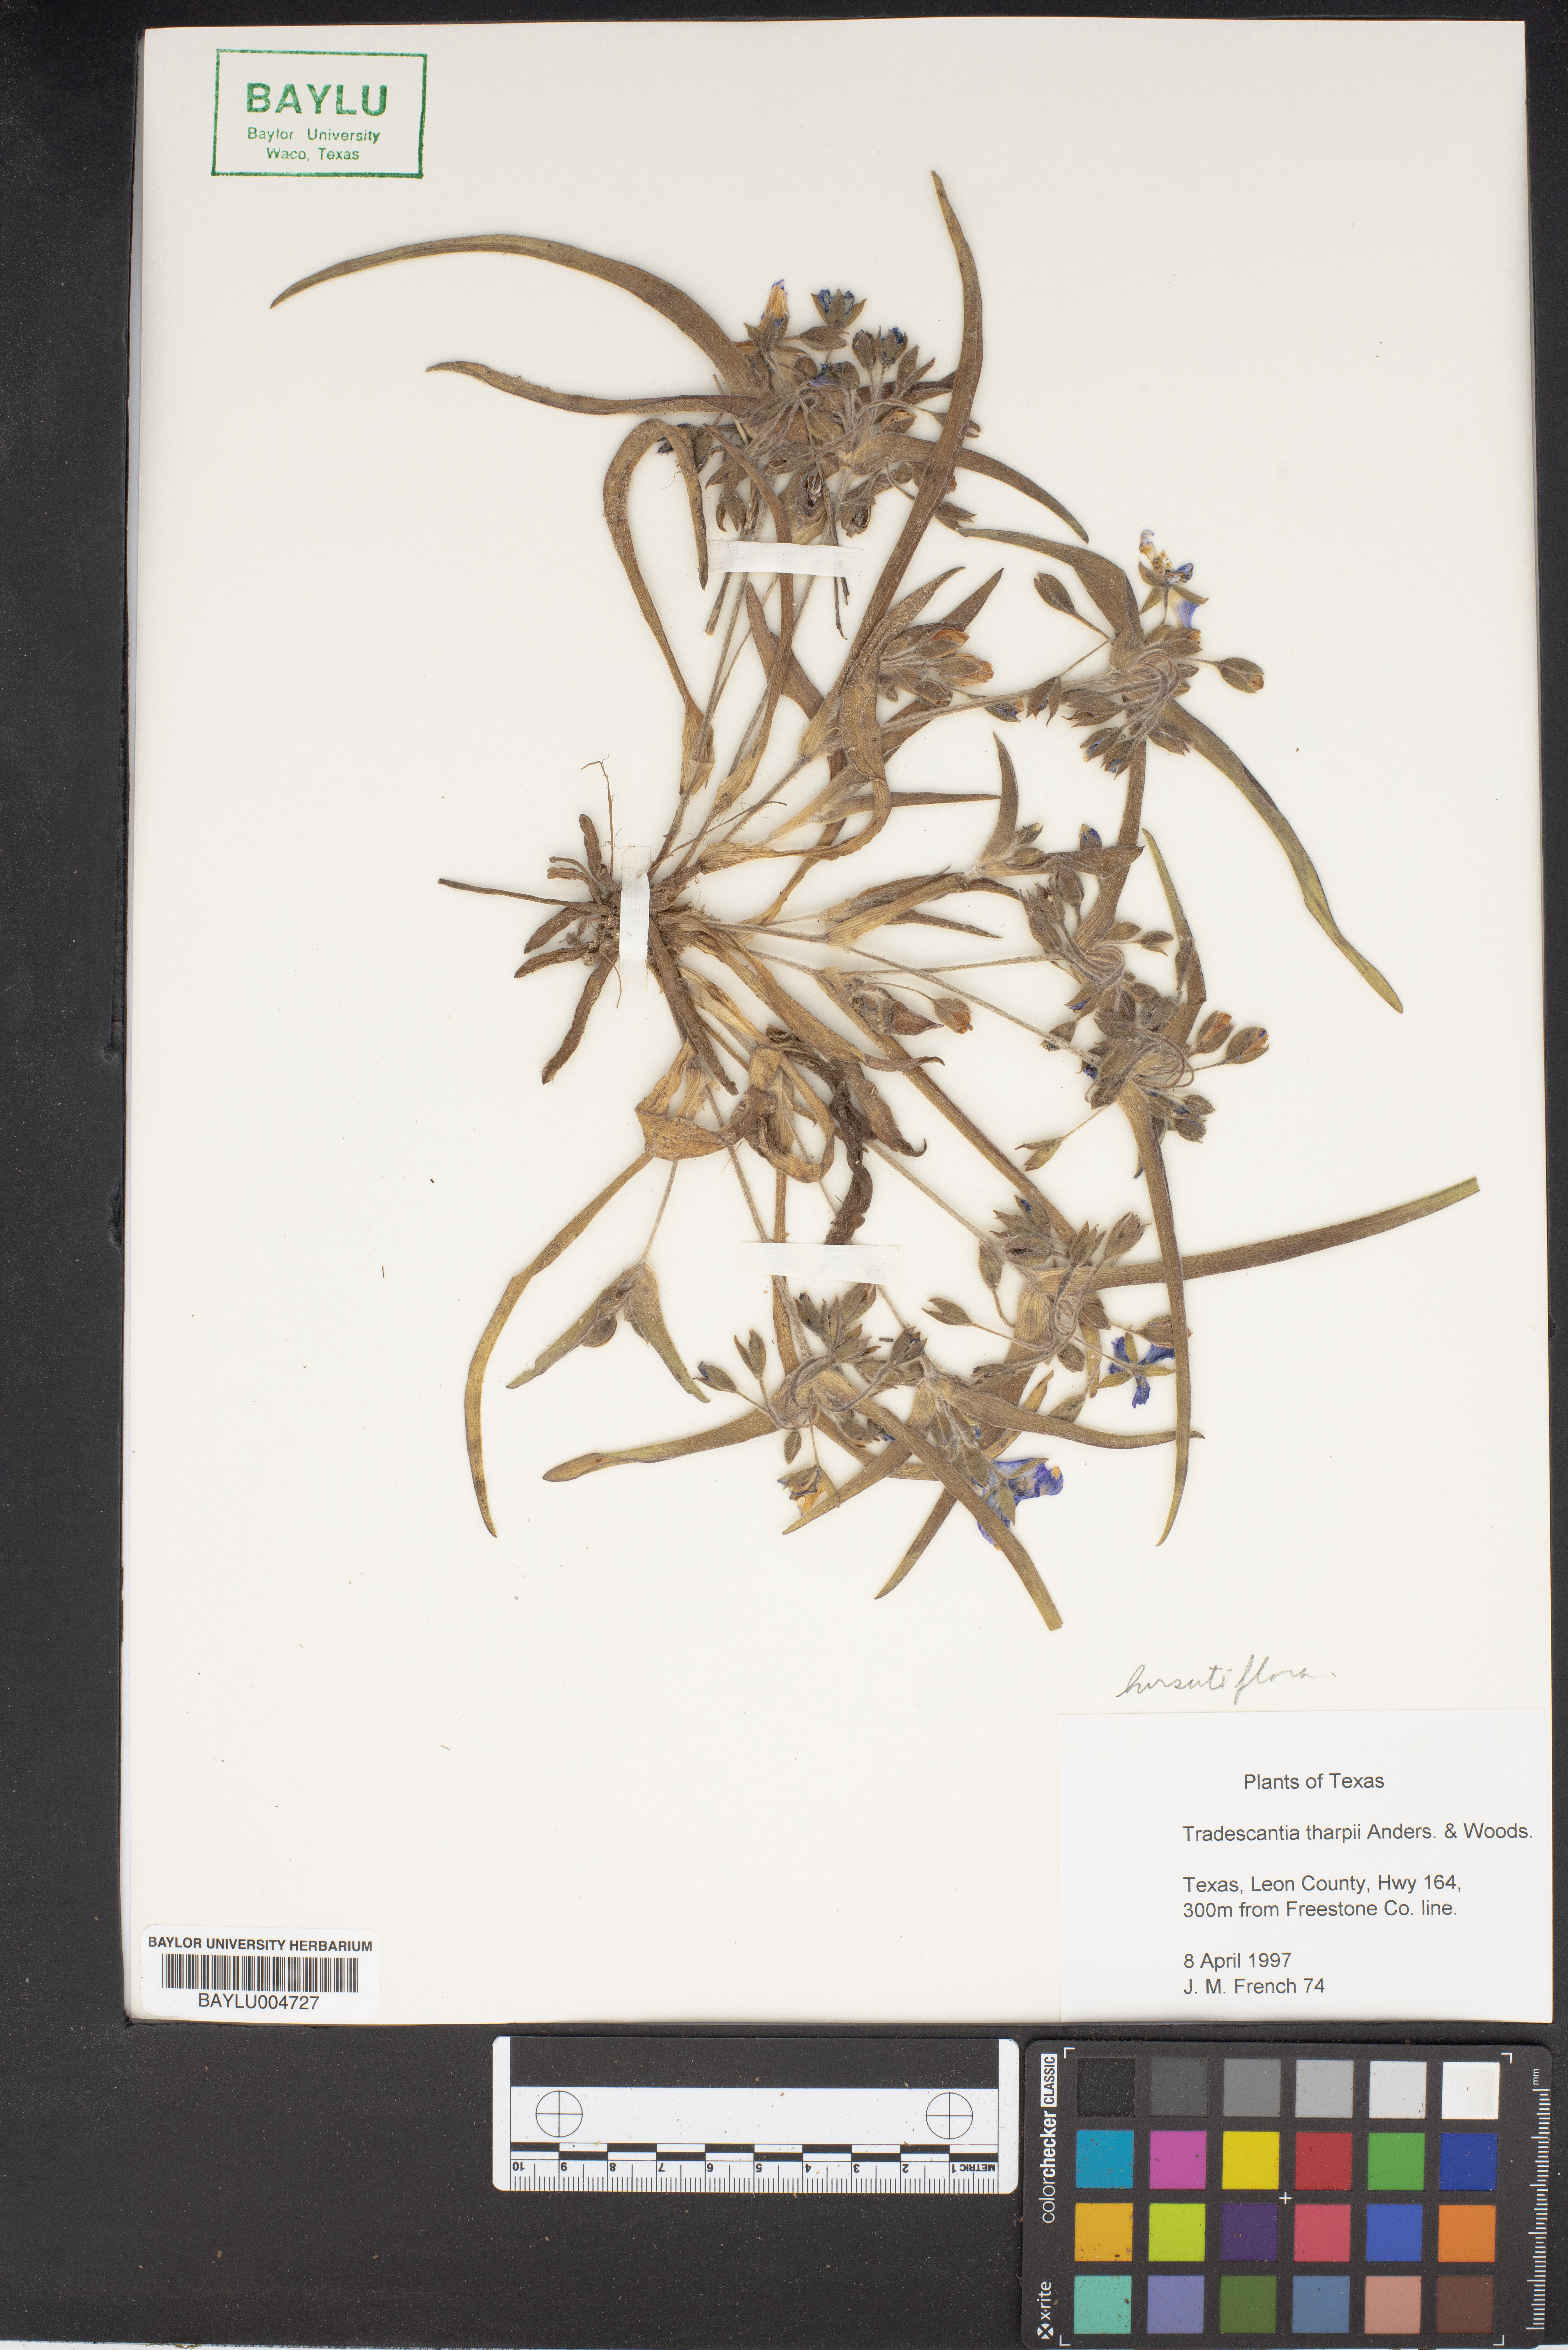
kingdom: Plantae
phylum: Tracheophyta
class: Liliopsida
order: Commelinales
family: Commelinaceae
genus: Tradescantia
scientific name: Tradescantia tharpii
